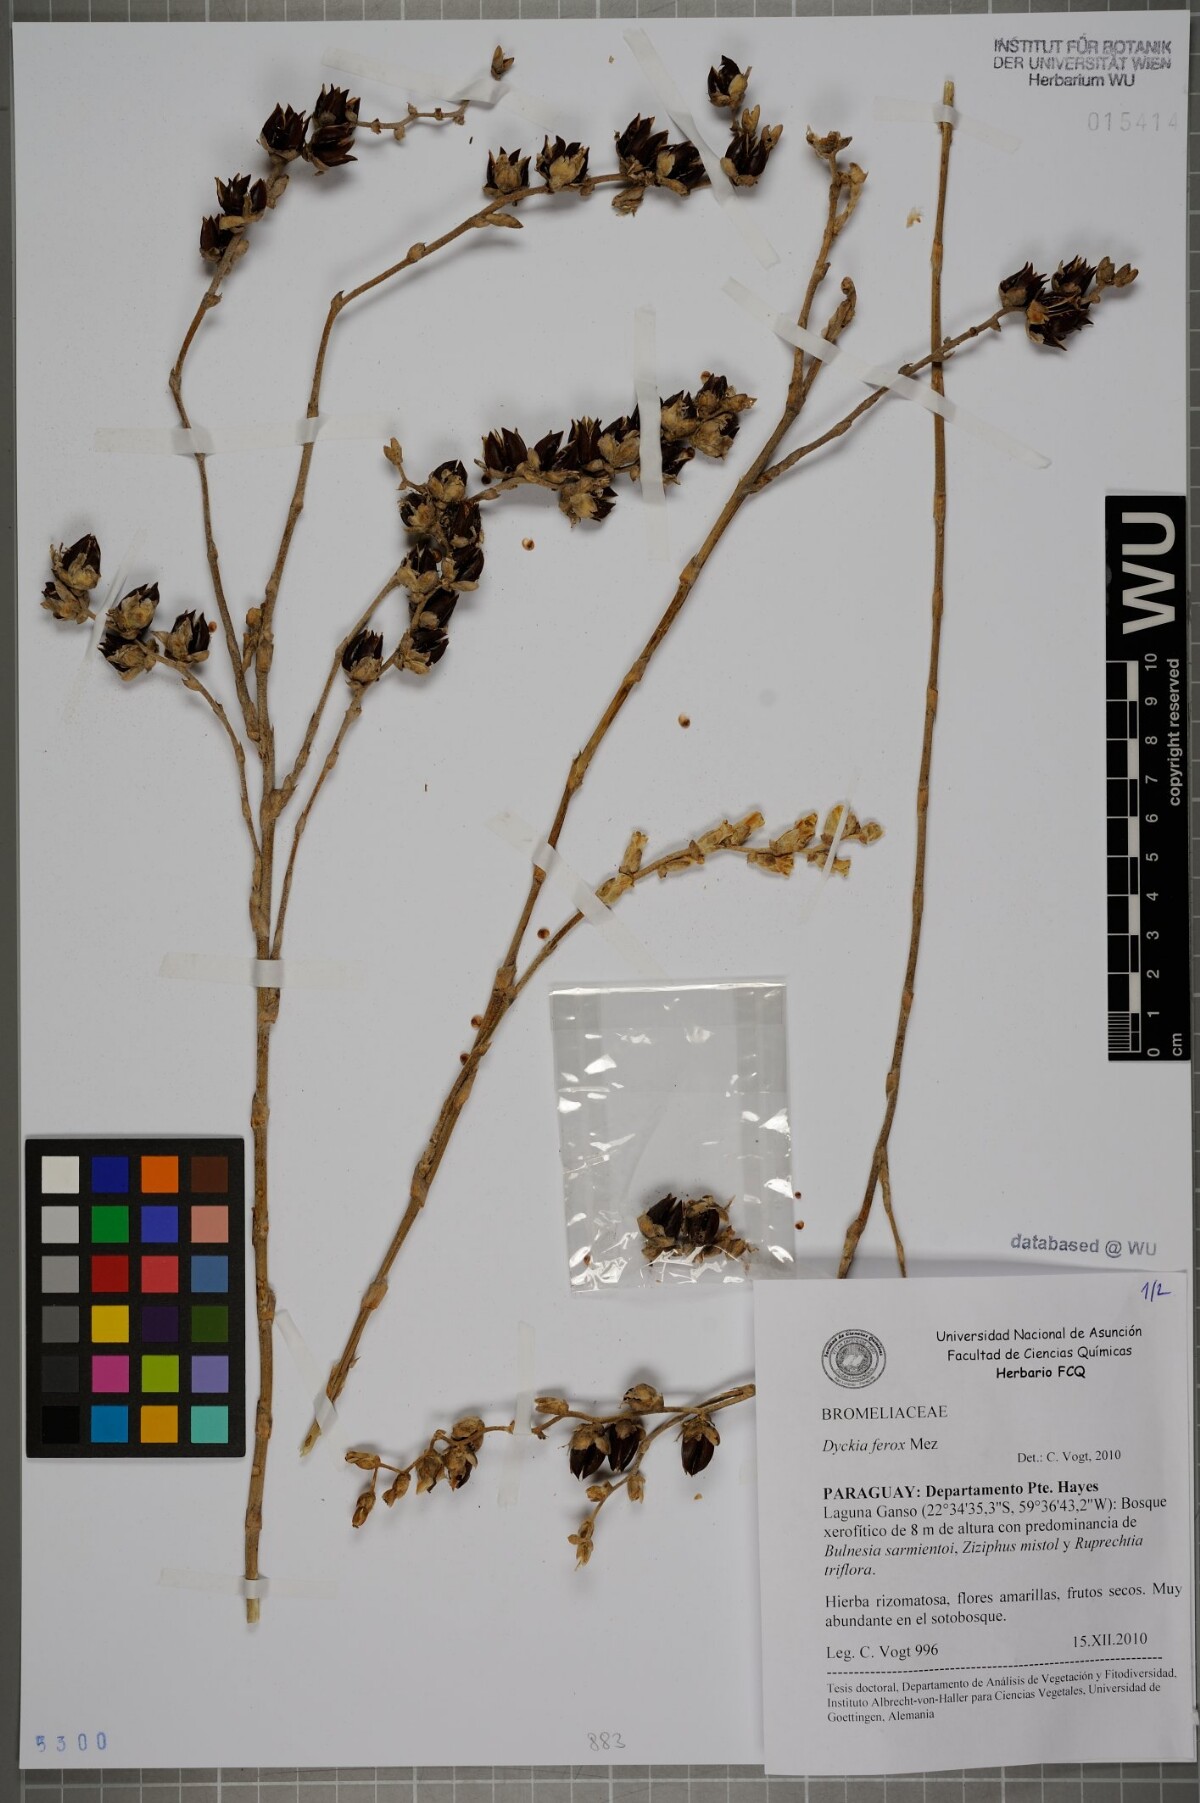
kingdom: Plantae
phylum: Tracheophyta
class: Liliopsida
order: Poales
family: Bromeliaceae
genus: Dyckia
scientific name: Dyckia ferox
